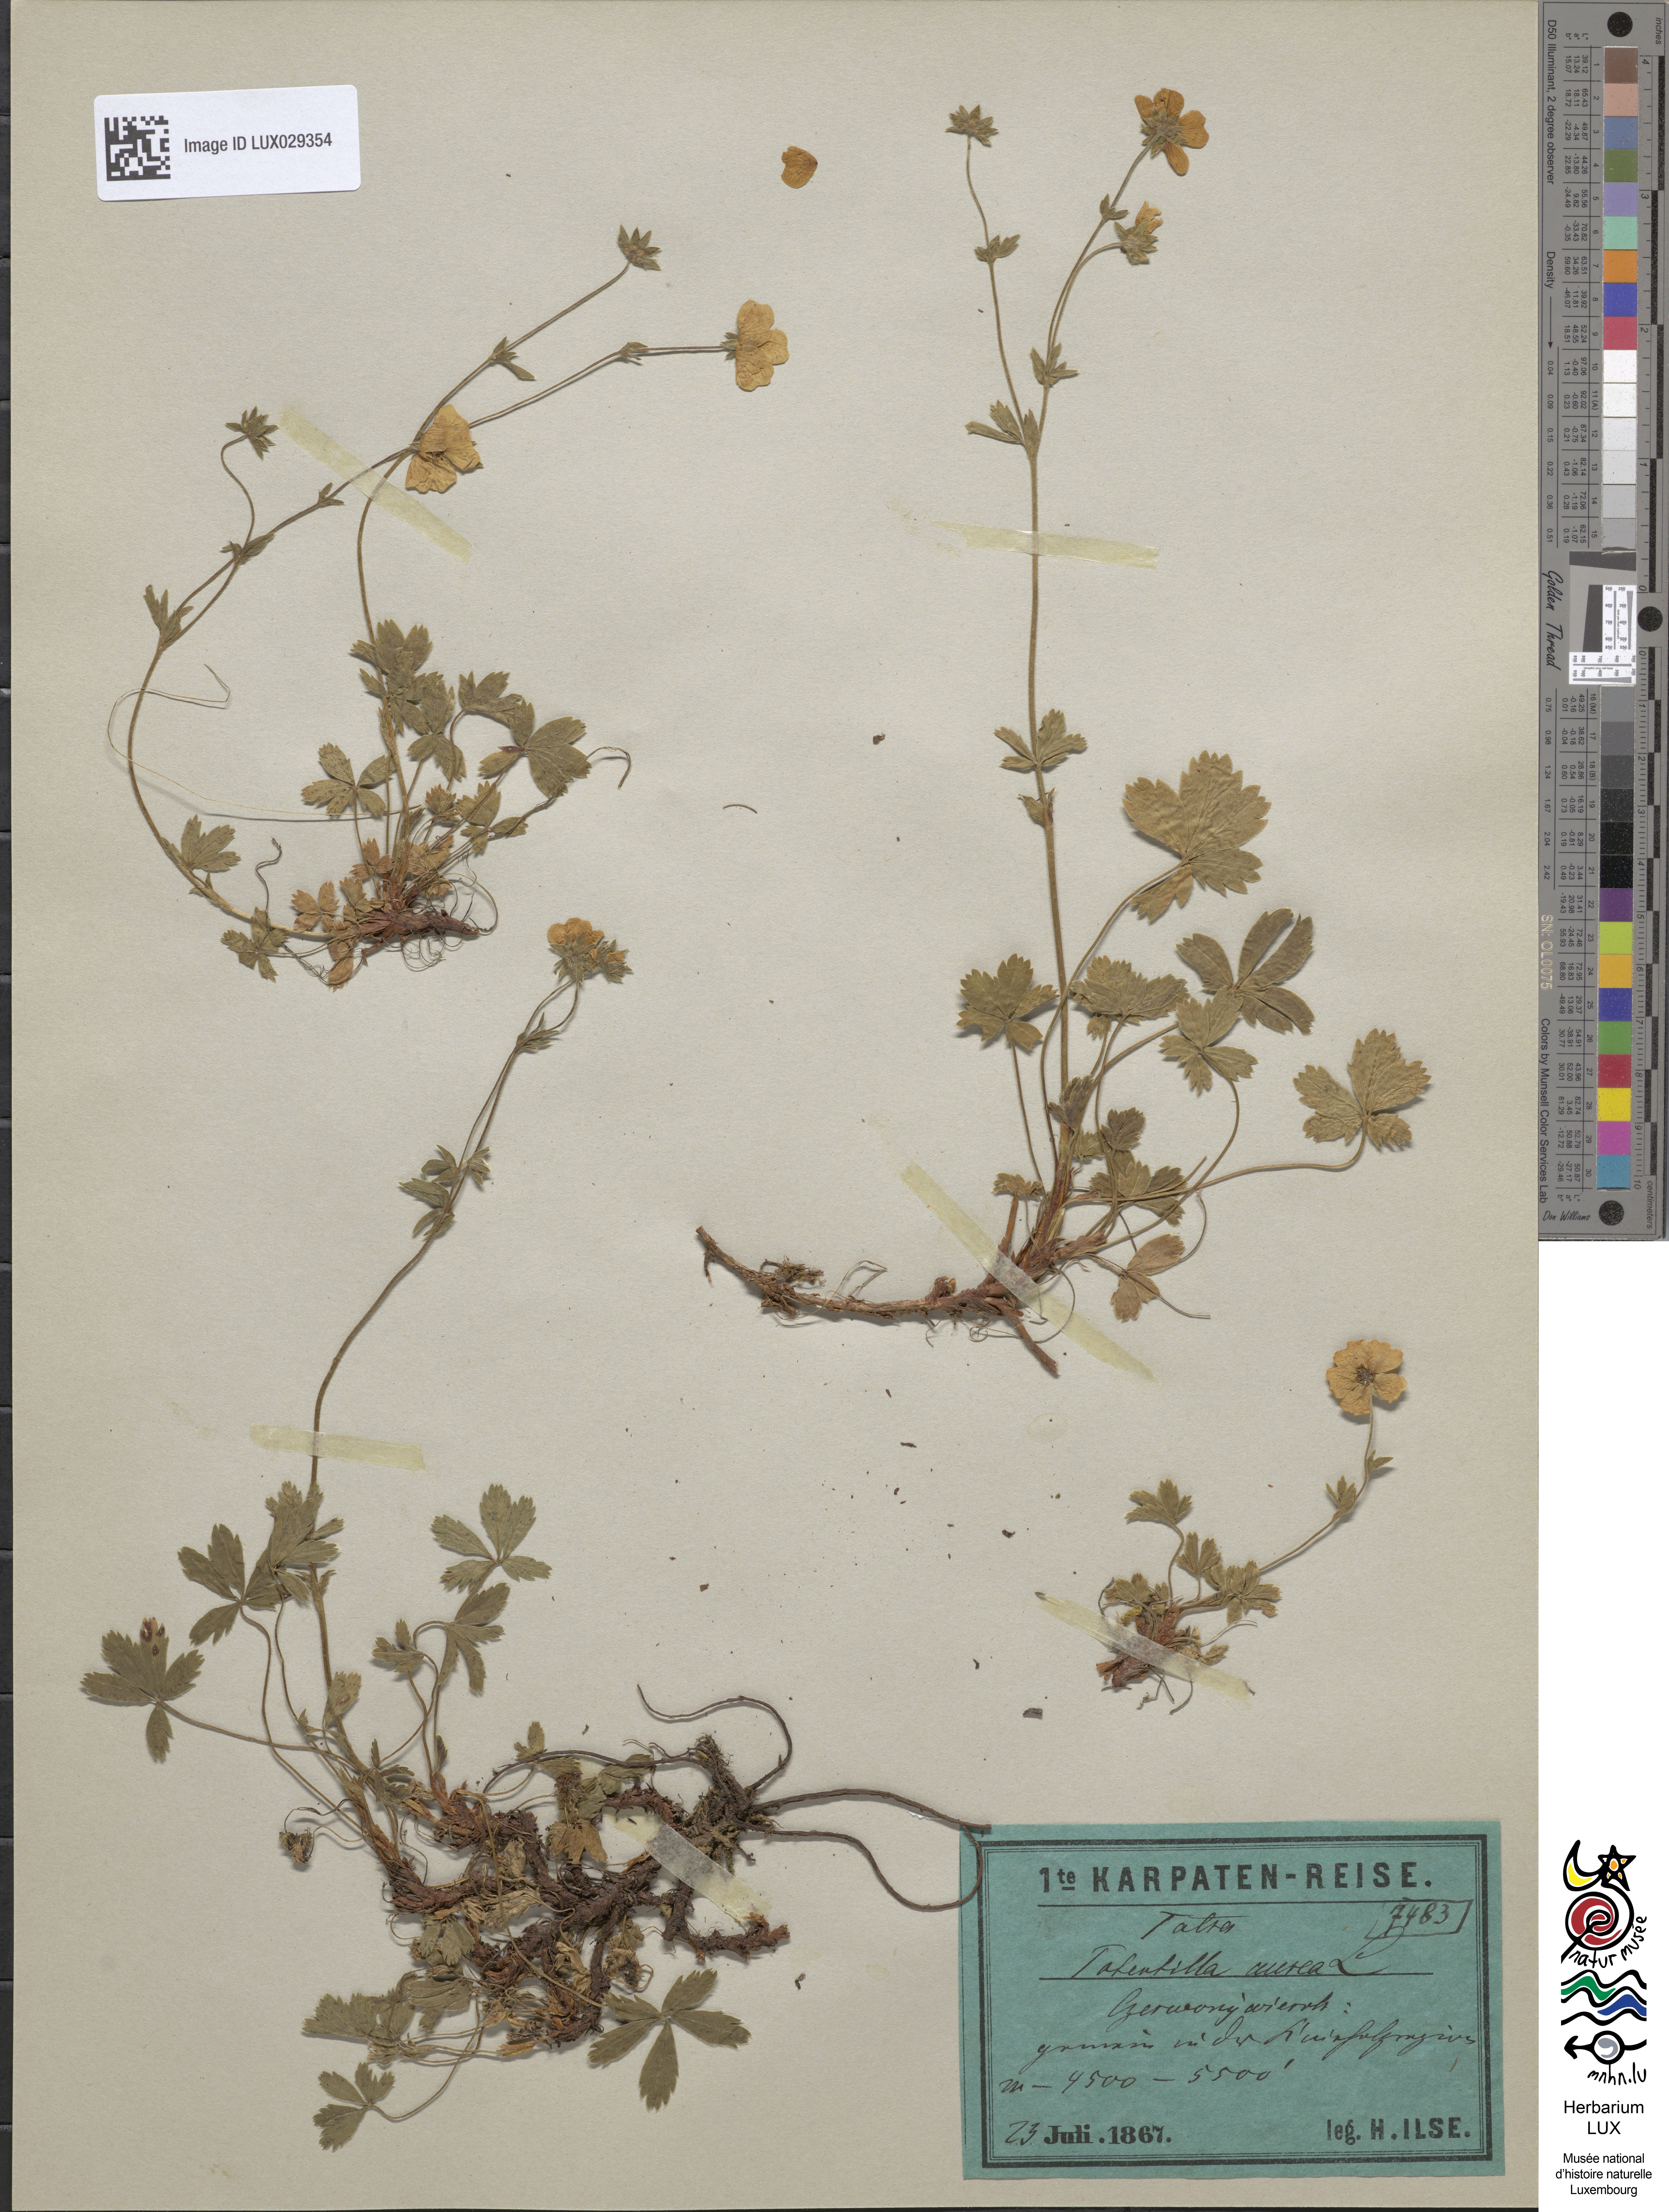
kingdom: Plantae
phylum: Tracheophyta
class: Magnoliopsida
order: Rosales
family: Rosaceae
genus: Potentilla
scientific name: Potentilla aurea
